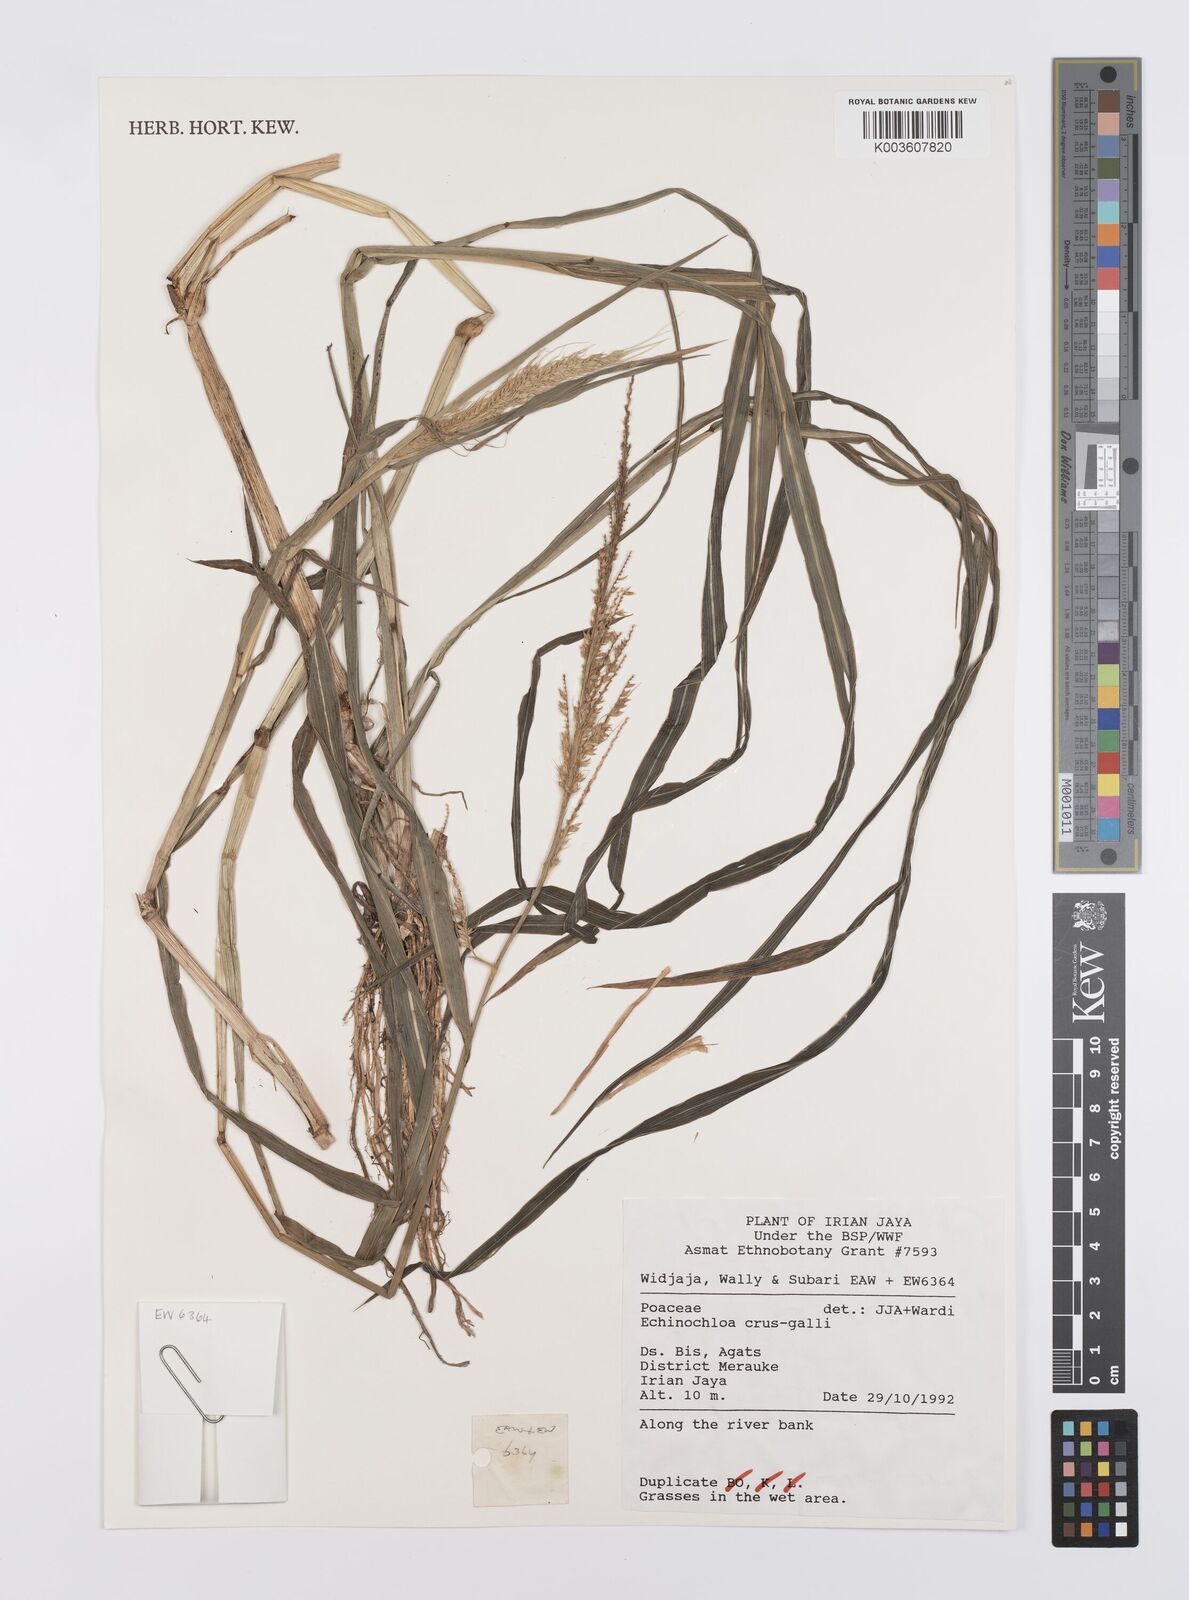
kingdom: Plantae
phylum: Tracheophyta
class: Liliopsida
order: Poales
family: Poaceae
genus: Echinochloa
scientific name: Echinochloa crus-galli
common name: Cockspur
